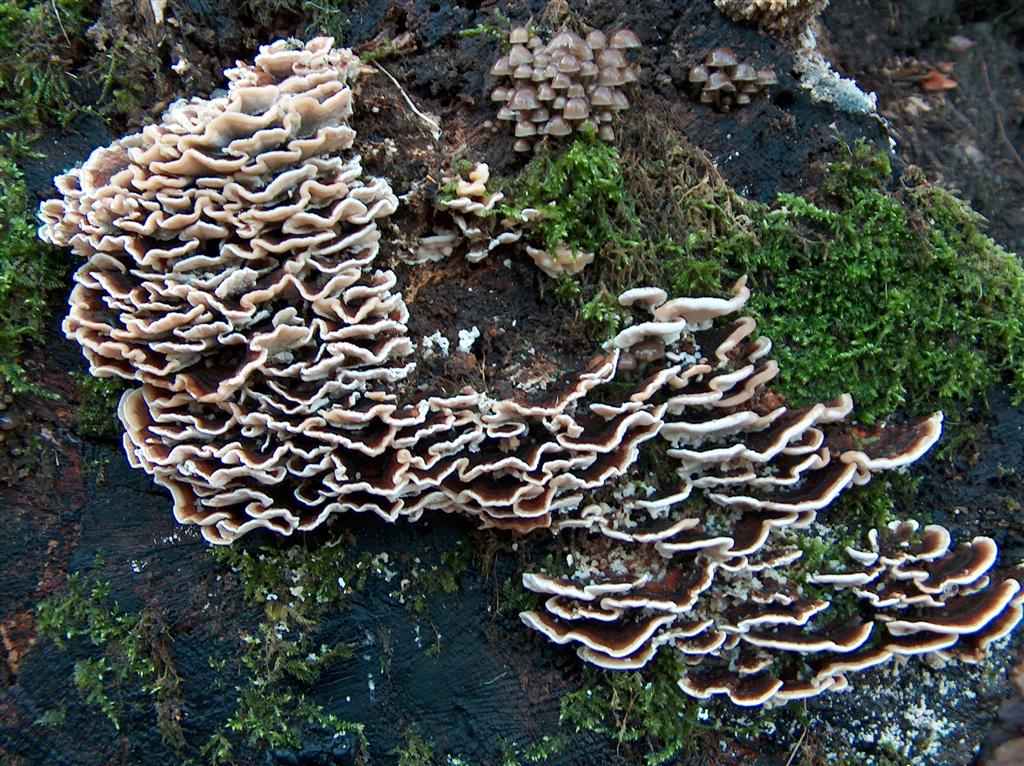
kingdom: Fungi
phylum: Basidiomycota
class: Agaricomycetes
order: Agaricales
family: Mycenaceae
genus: Mycena
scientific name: Mycena tintinnabulum
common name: vinter-huesvamp
